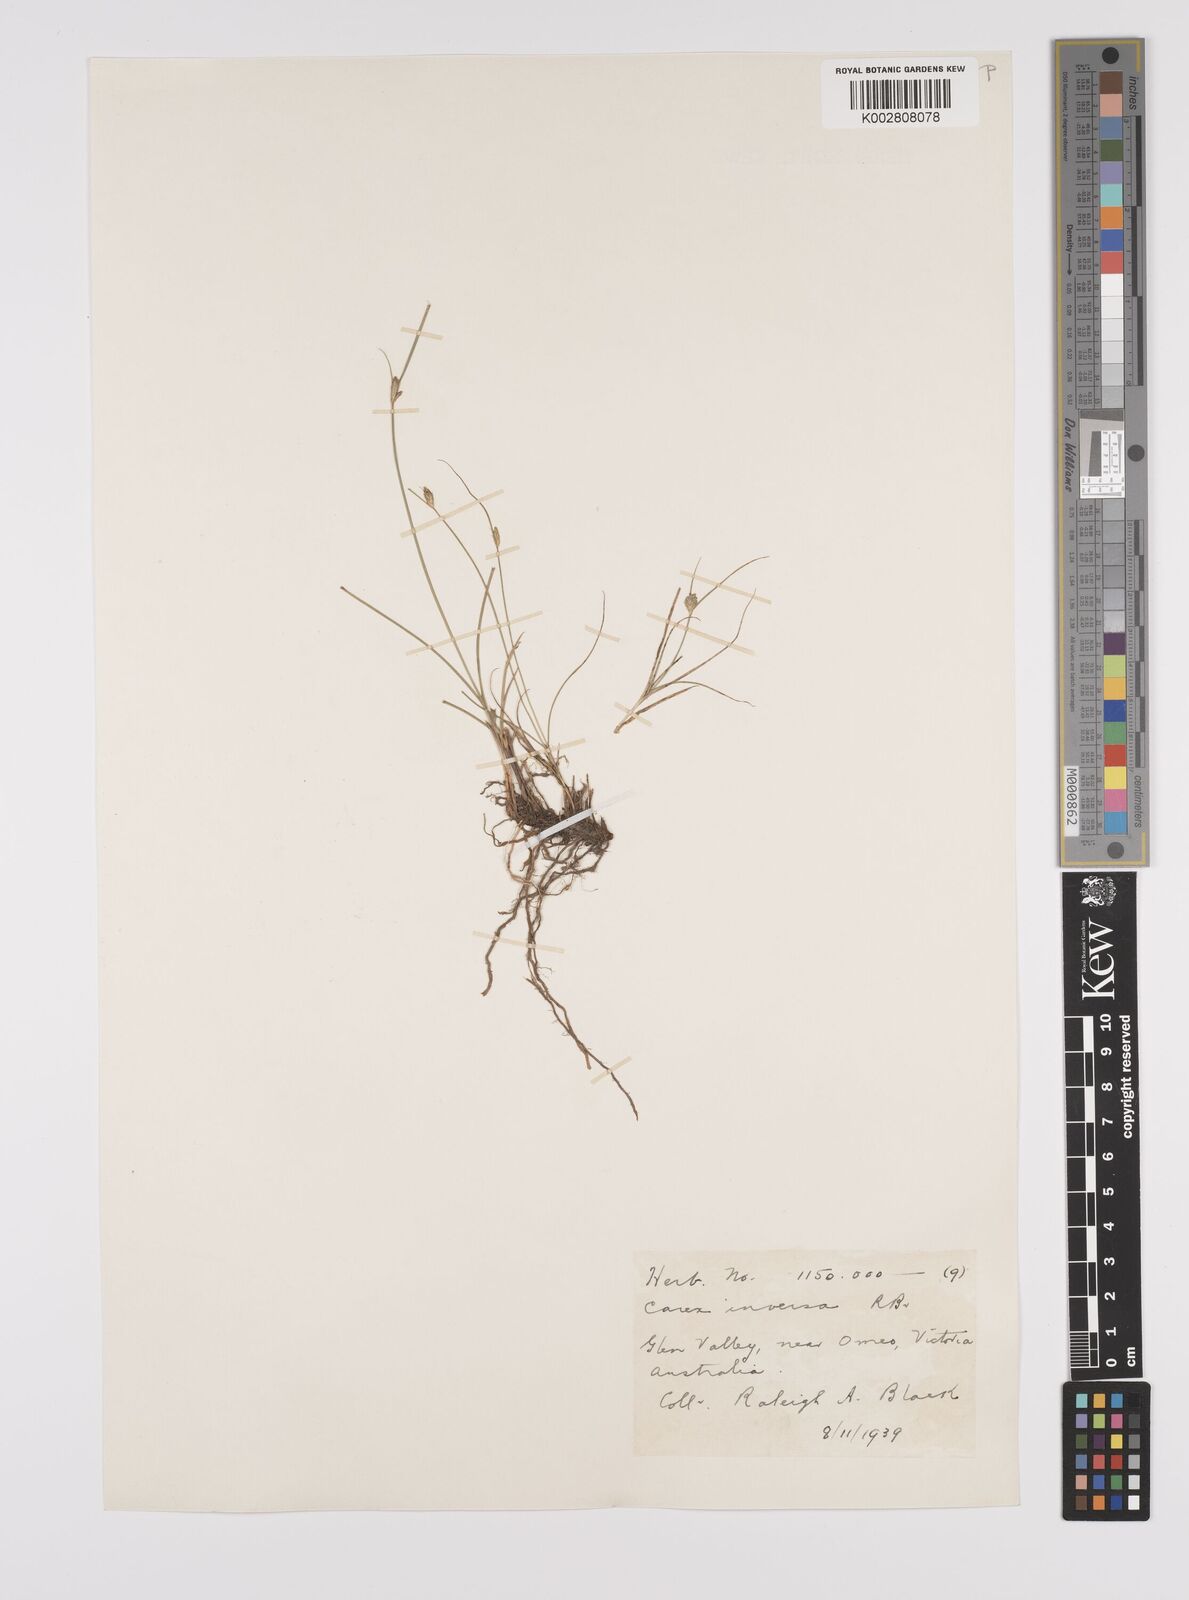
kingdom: Plantae
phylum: Tracheophyta
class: Liliopsida
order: Poales
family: Cyperaceae
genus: Carex
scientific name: Carex inversa
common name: Knob sedge
